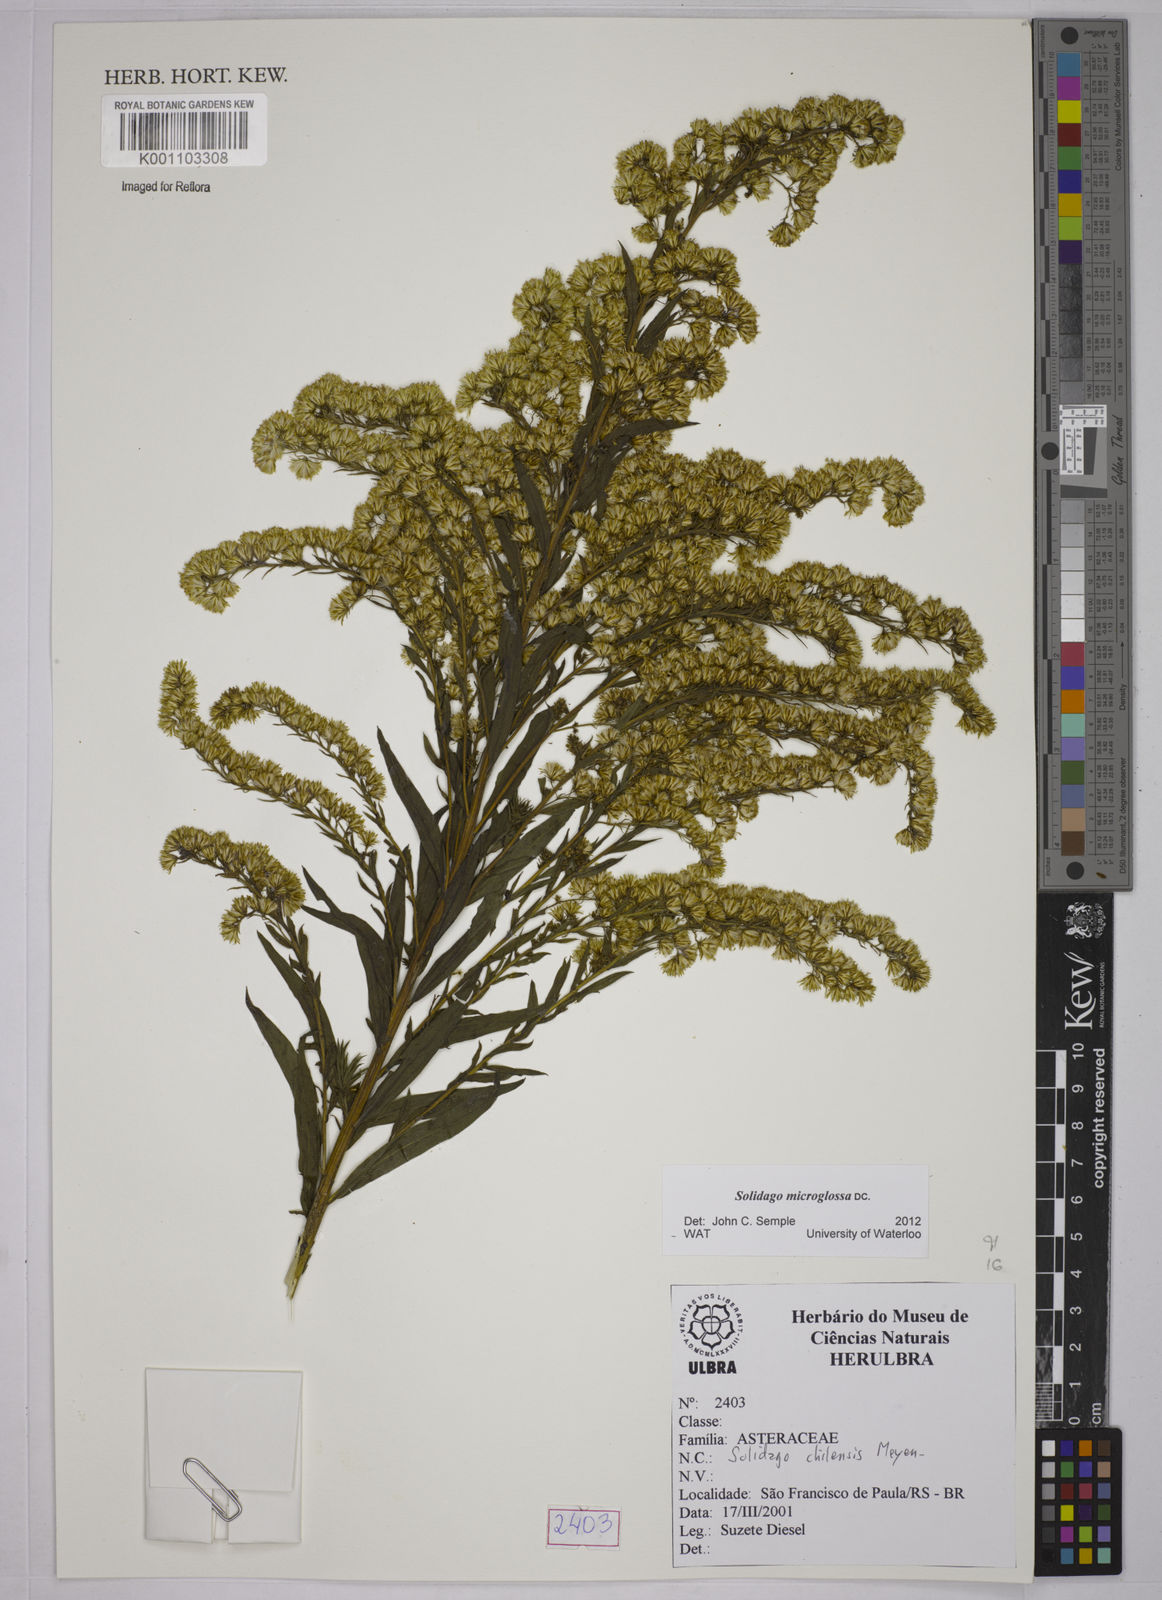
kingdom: Plantae
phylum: Tracheophyta
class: Magnoliopsida
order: Asterales
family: Asteraceae
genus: Solidago
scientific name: Solidago chilensis
